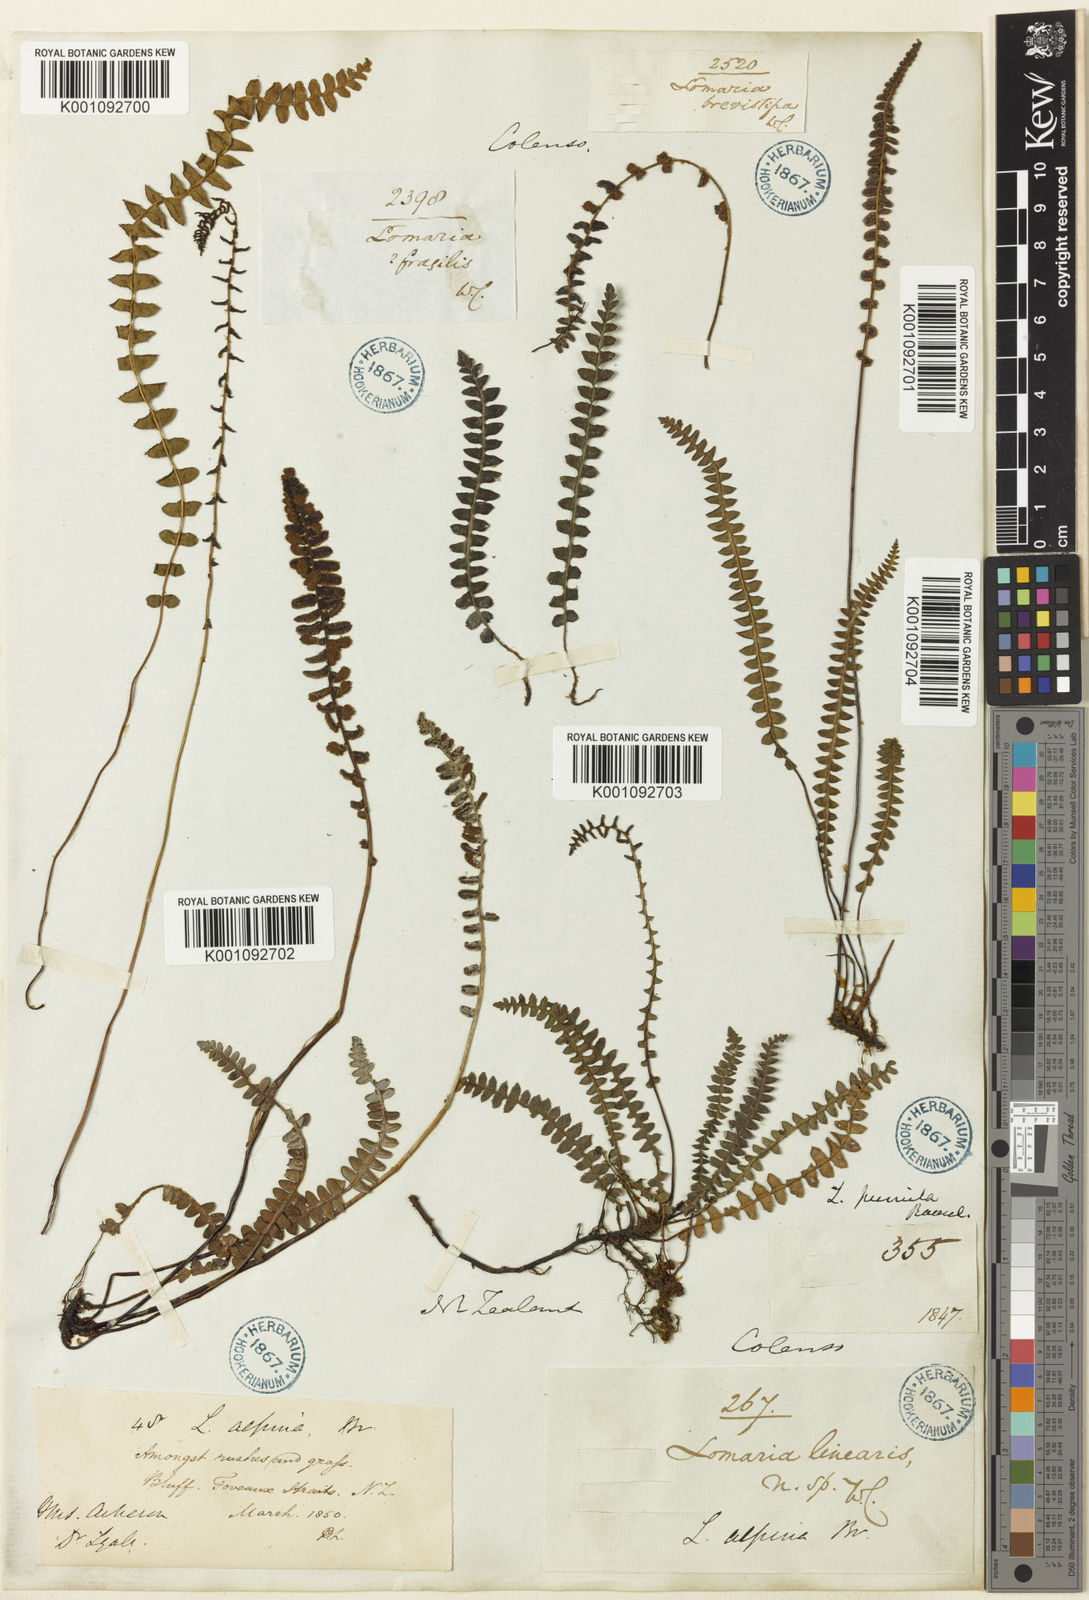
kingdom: Plantae
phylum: Tracheophyta
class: Polypodiopsida
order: Polypodiales
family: Blechnaceae
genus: Austroblechnum
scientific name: Austroblechnum penna-marina
